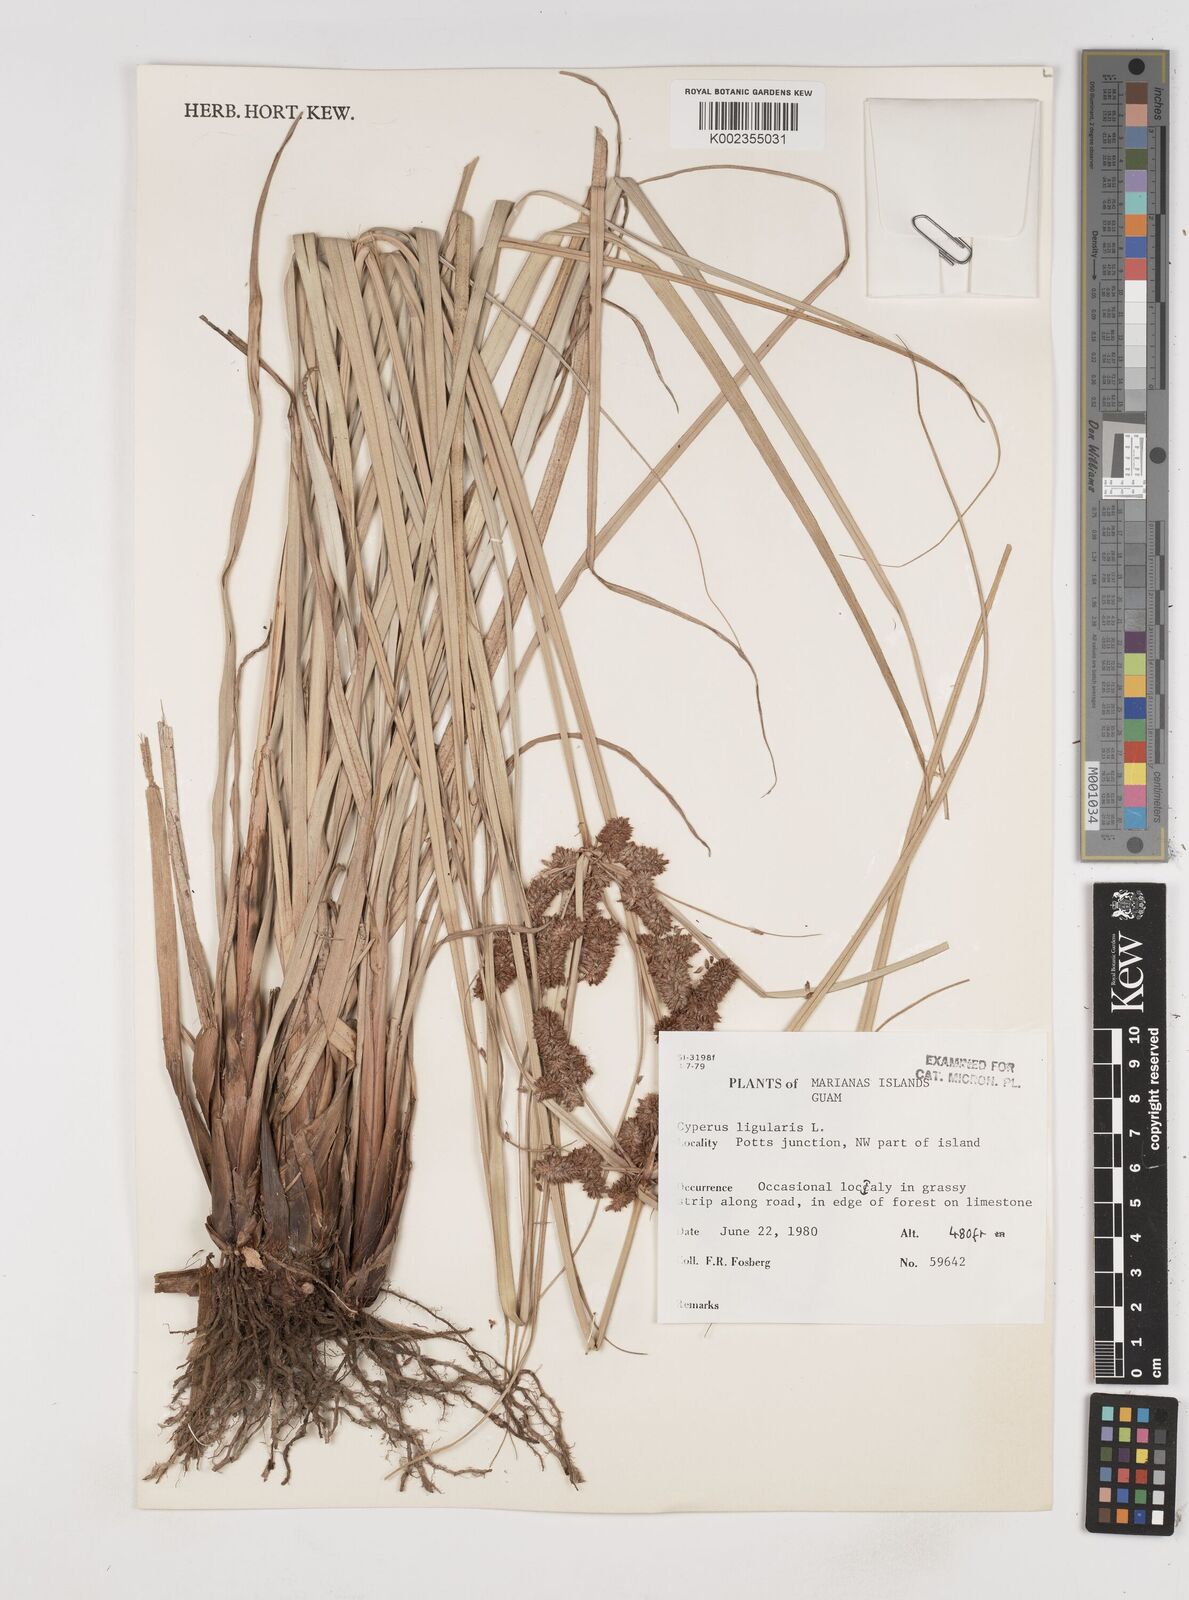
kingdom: Plantae
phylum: Tracheophyta
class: Liliopsida
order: Poales
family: Cyperaceae
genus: Cyperus
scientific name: Cyperus ligularis
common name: Swamp flat sedge
